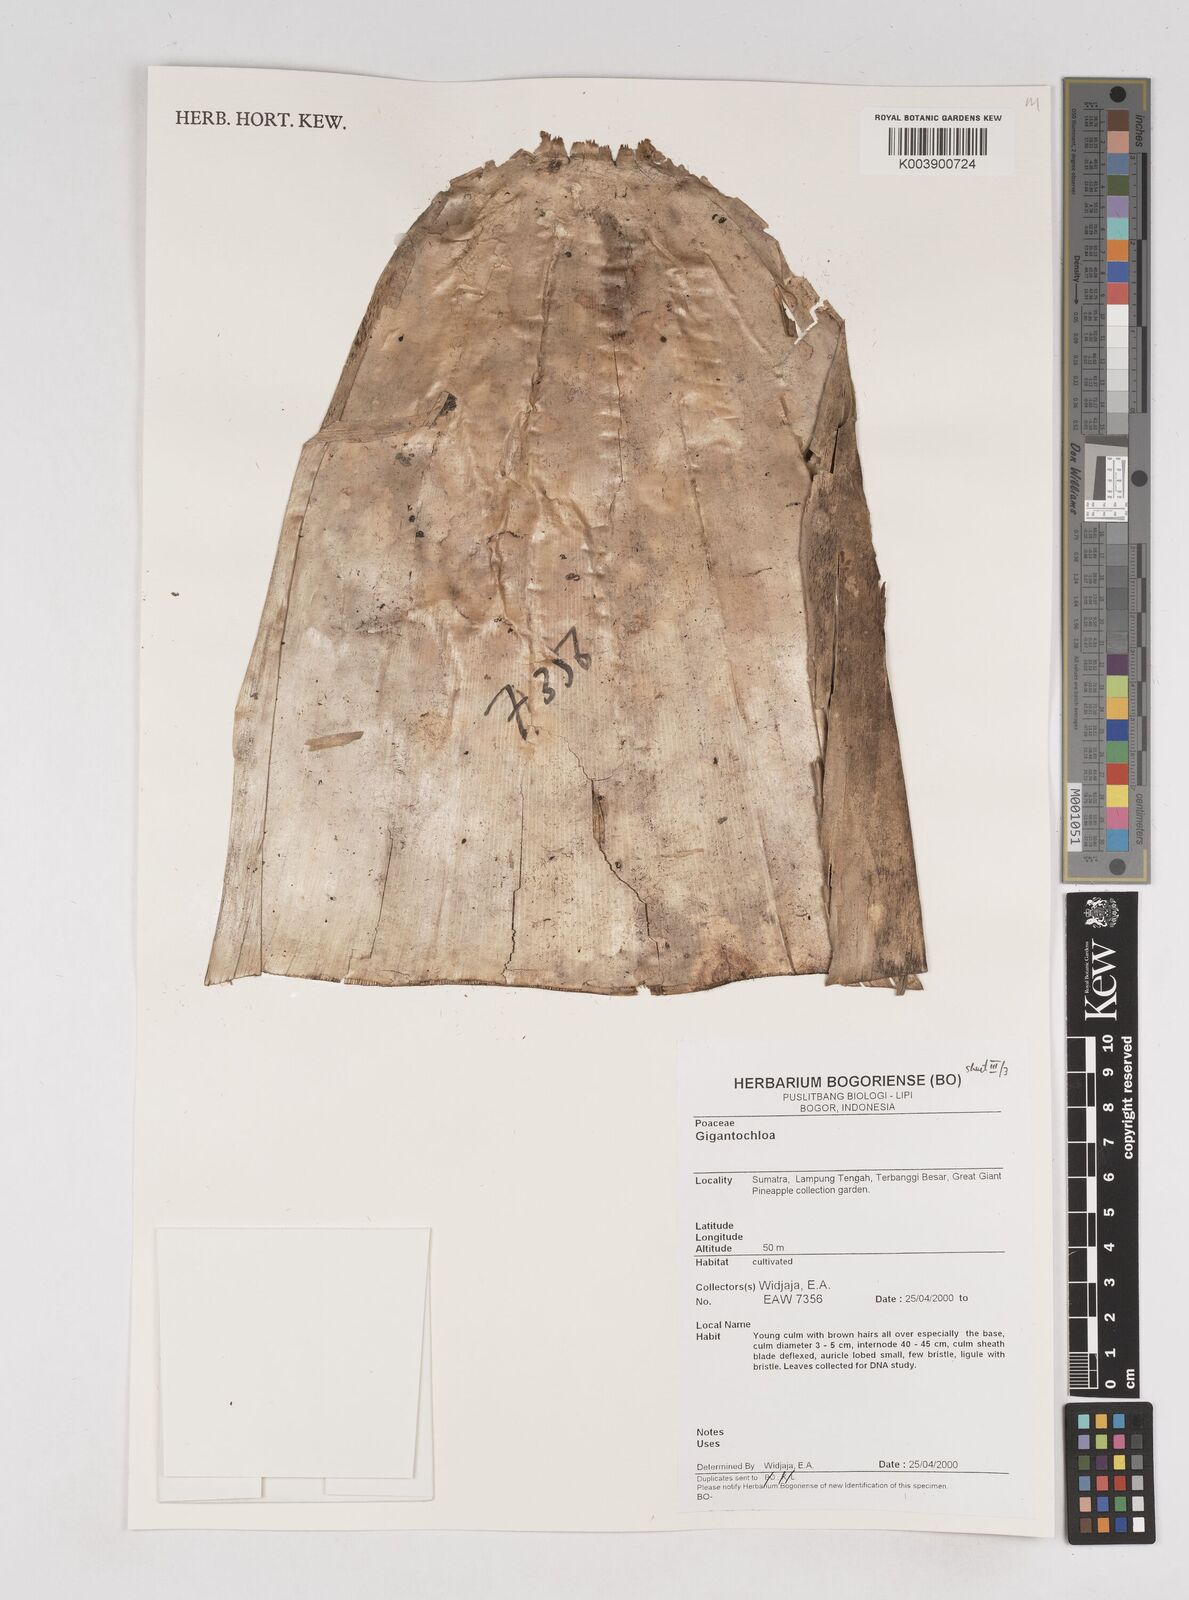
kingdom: Plantae
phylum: Tracheophyta
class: Liliopsida
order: Poales
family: Poaceae
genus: Gigantochloa
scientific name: Gigantochloa
